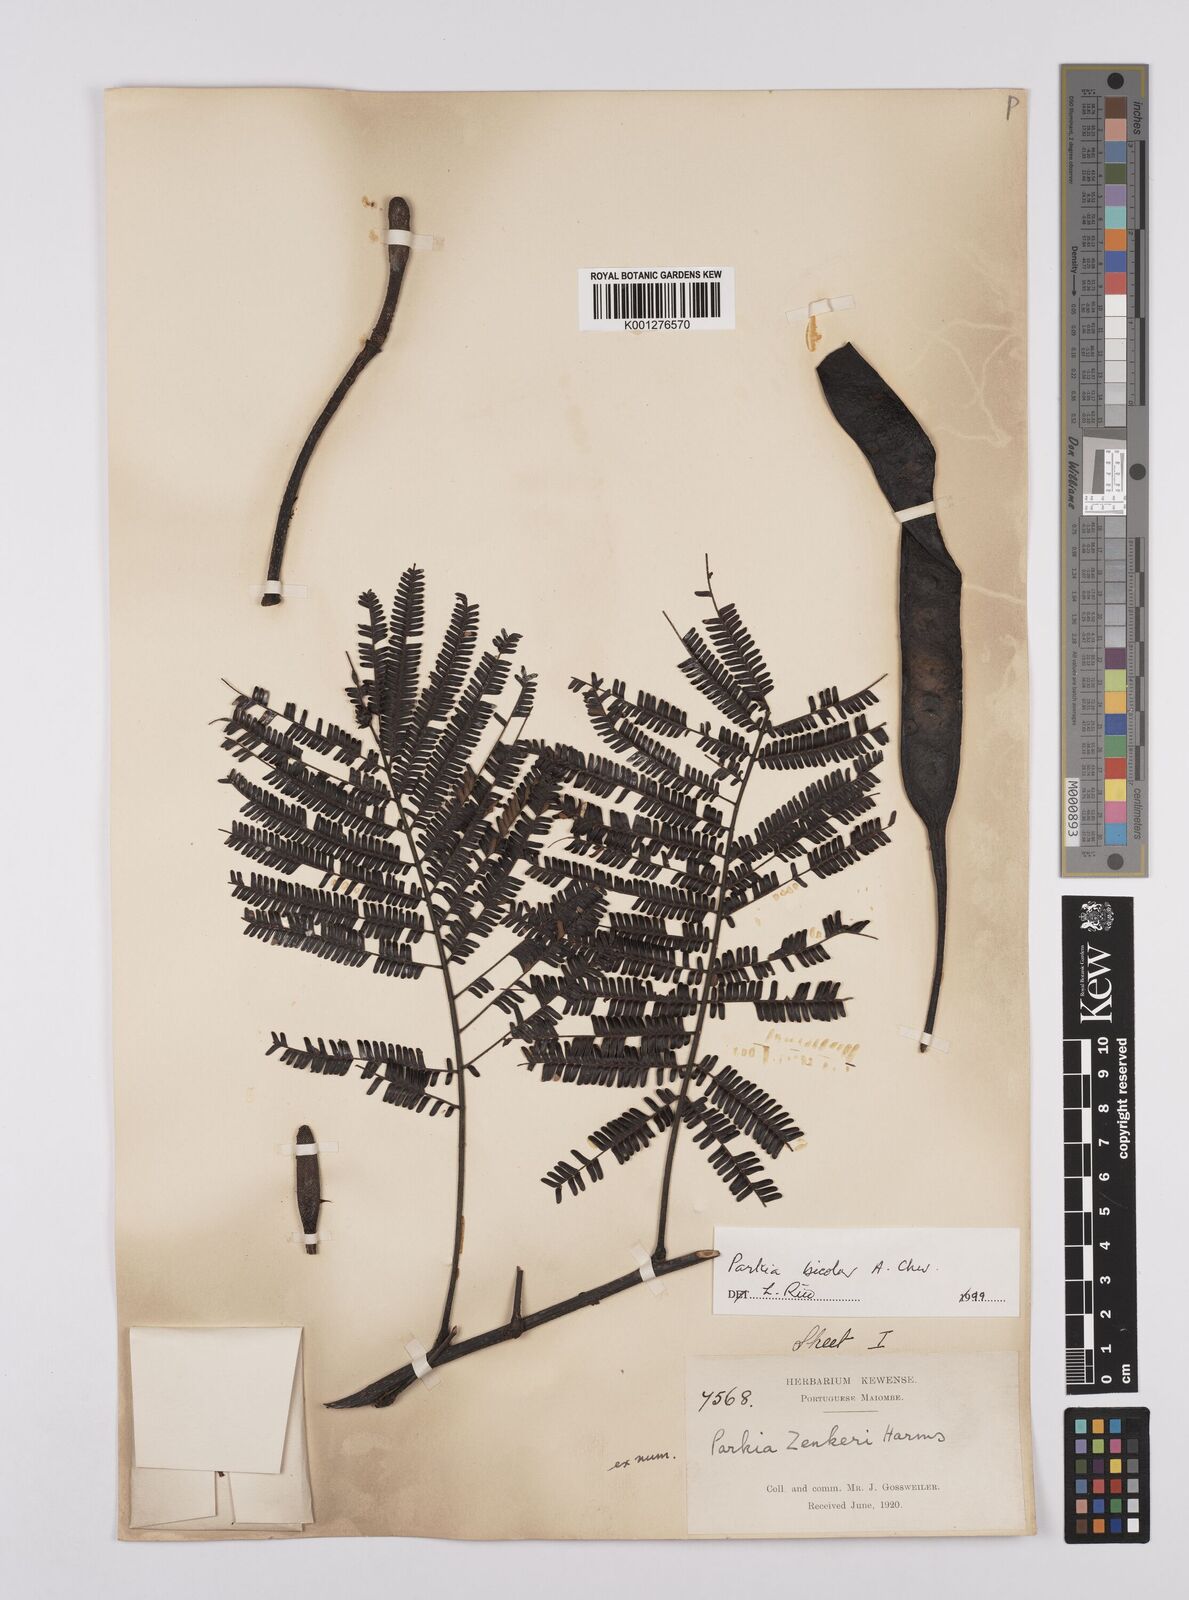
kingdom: Plantae
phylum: Tracheophyta
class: Magnoliopsida
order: Fabales
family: Fabaceae
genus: Parkia
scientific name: Parkia bicolor
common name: African locust-bean
